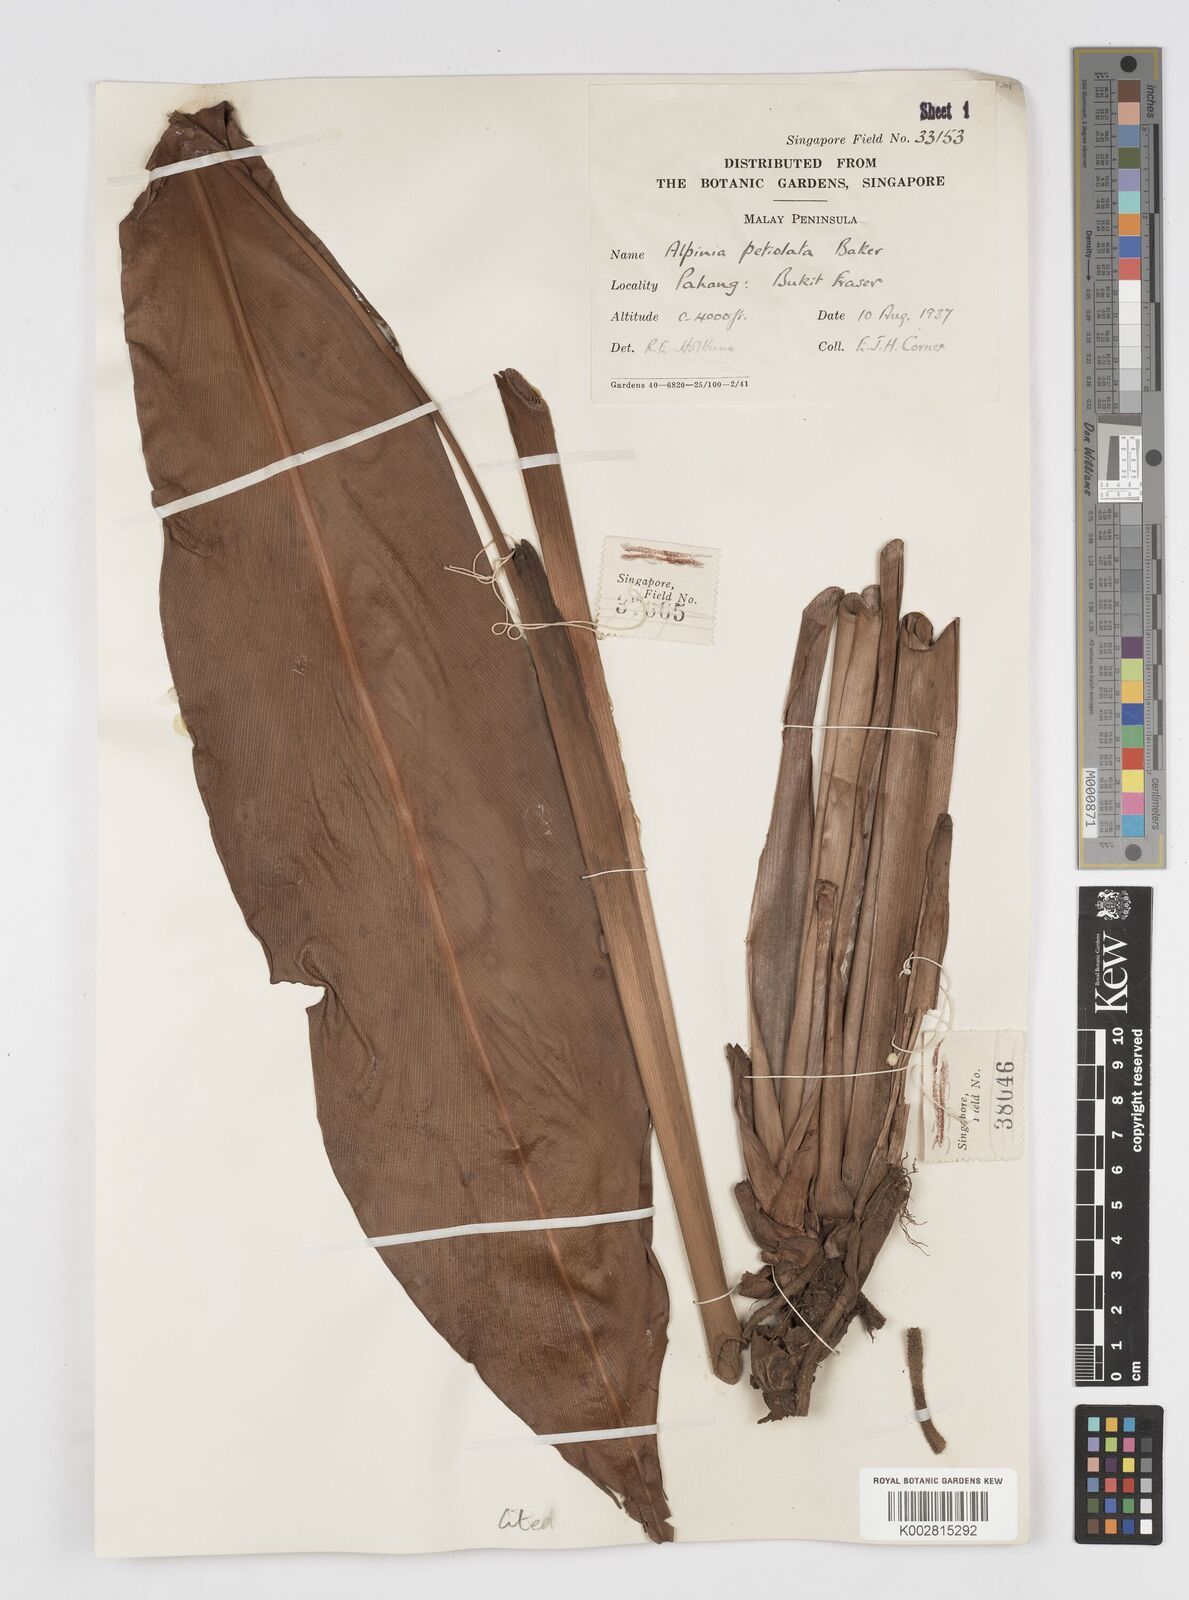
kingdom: Plantae
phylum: Tracheophyta
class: Liliopsida
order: Zingiberales
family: Zingiberaceae
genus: Alpinia
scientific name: Alpinia petiolata
